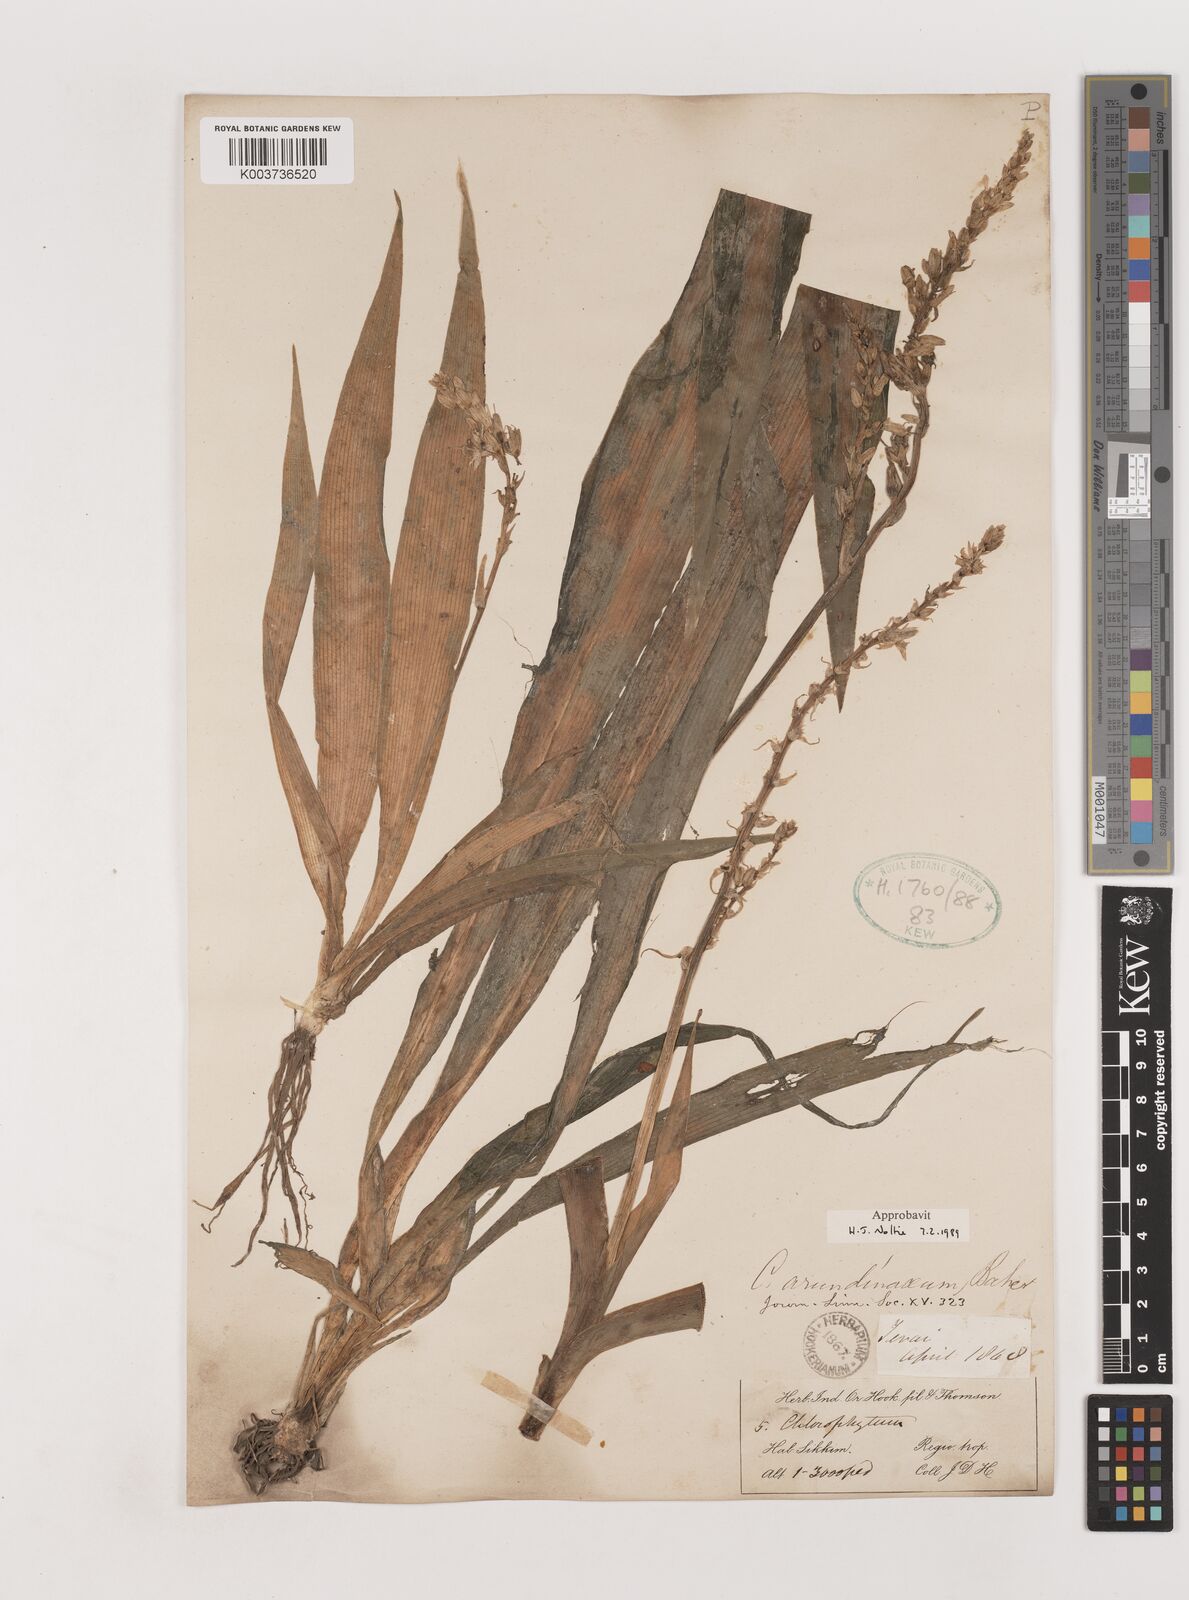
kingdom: Plantae
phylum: Tracheophyta
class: Liliopsida
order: Asparagales
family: Asparagaceae
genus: Chlorophytum
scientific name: Chlorophytum arundinaceum
